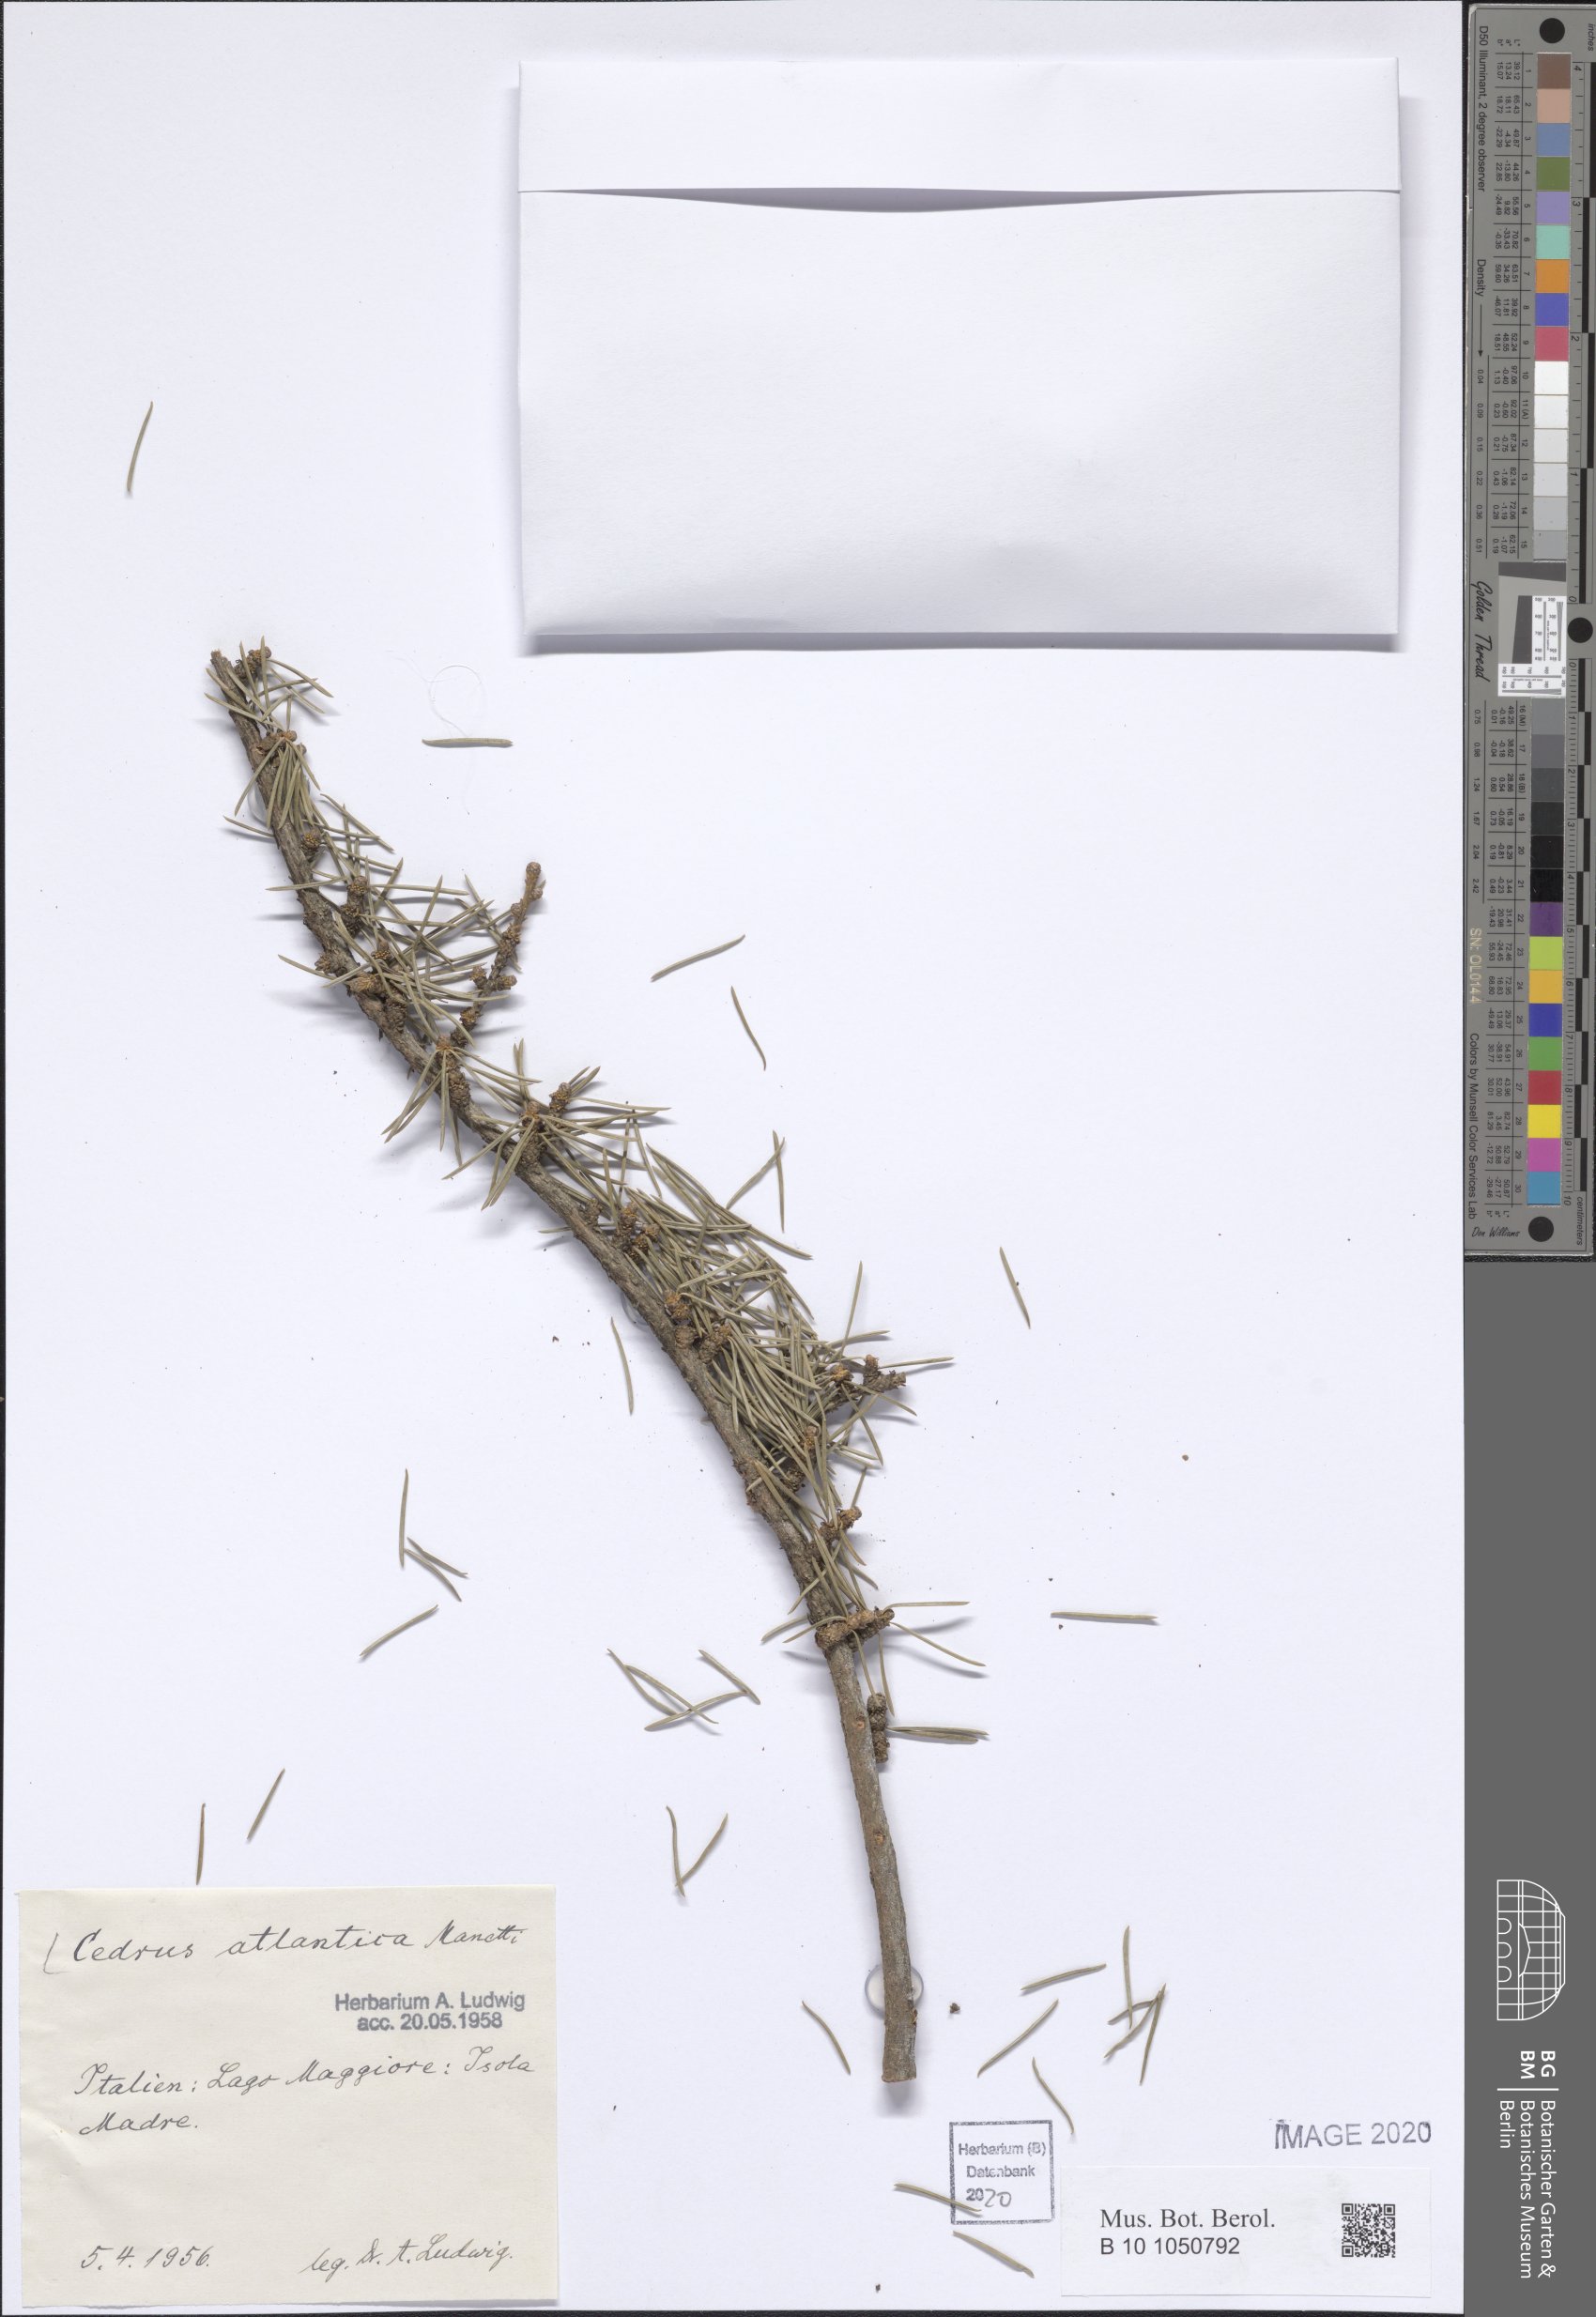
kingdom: Plantae
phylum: Tracheophyta
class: Pinopsida
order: Pinales
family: Pinaceae
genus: Cedrus
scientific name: Cedrus atlantica
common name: Atlas cedar
